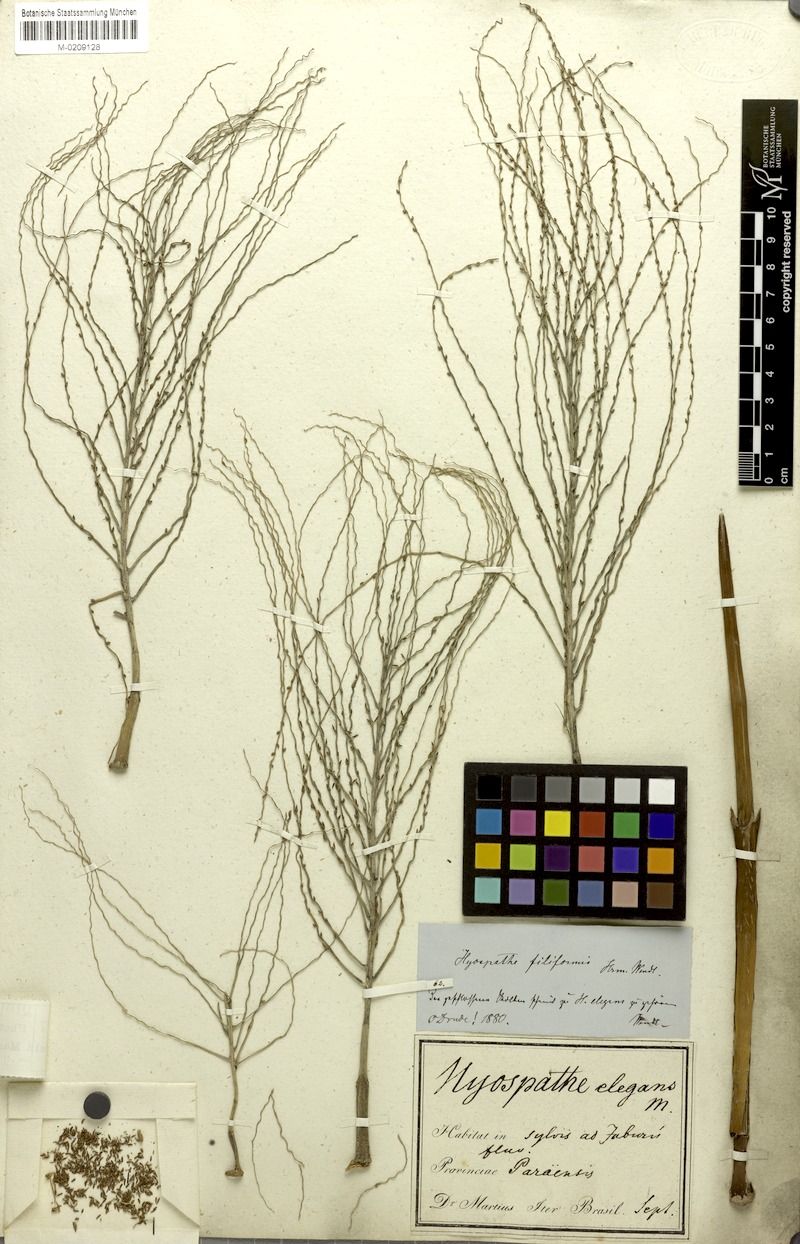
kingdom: Plantae
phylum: Tracheophyta
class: Liliopsida
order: Arecales
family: Arecaceae
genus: Hyospathe
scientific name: Hyospathe elegans
